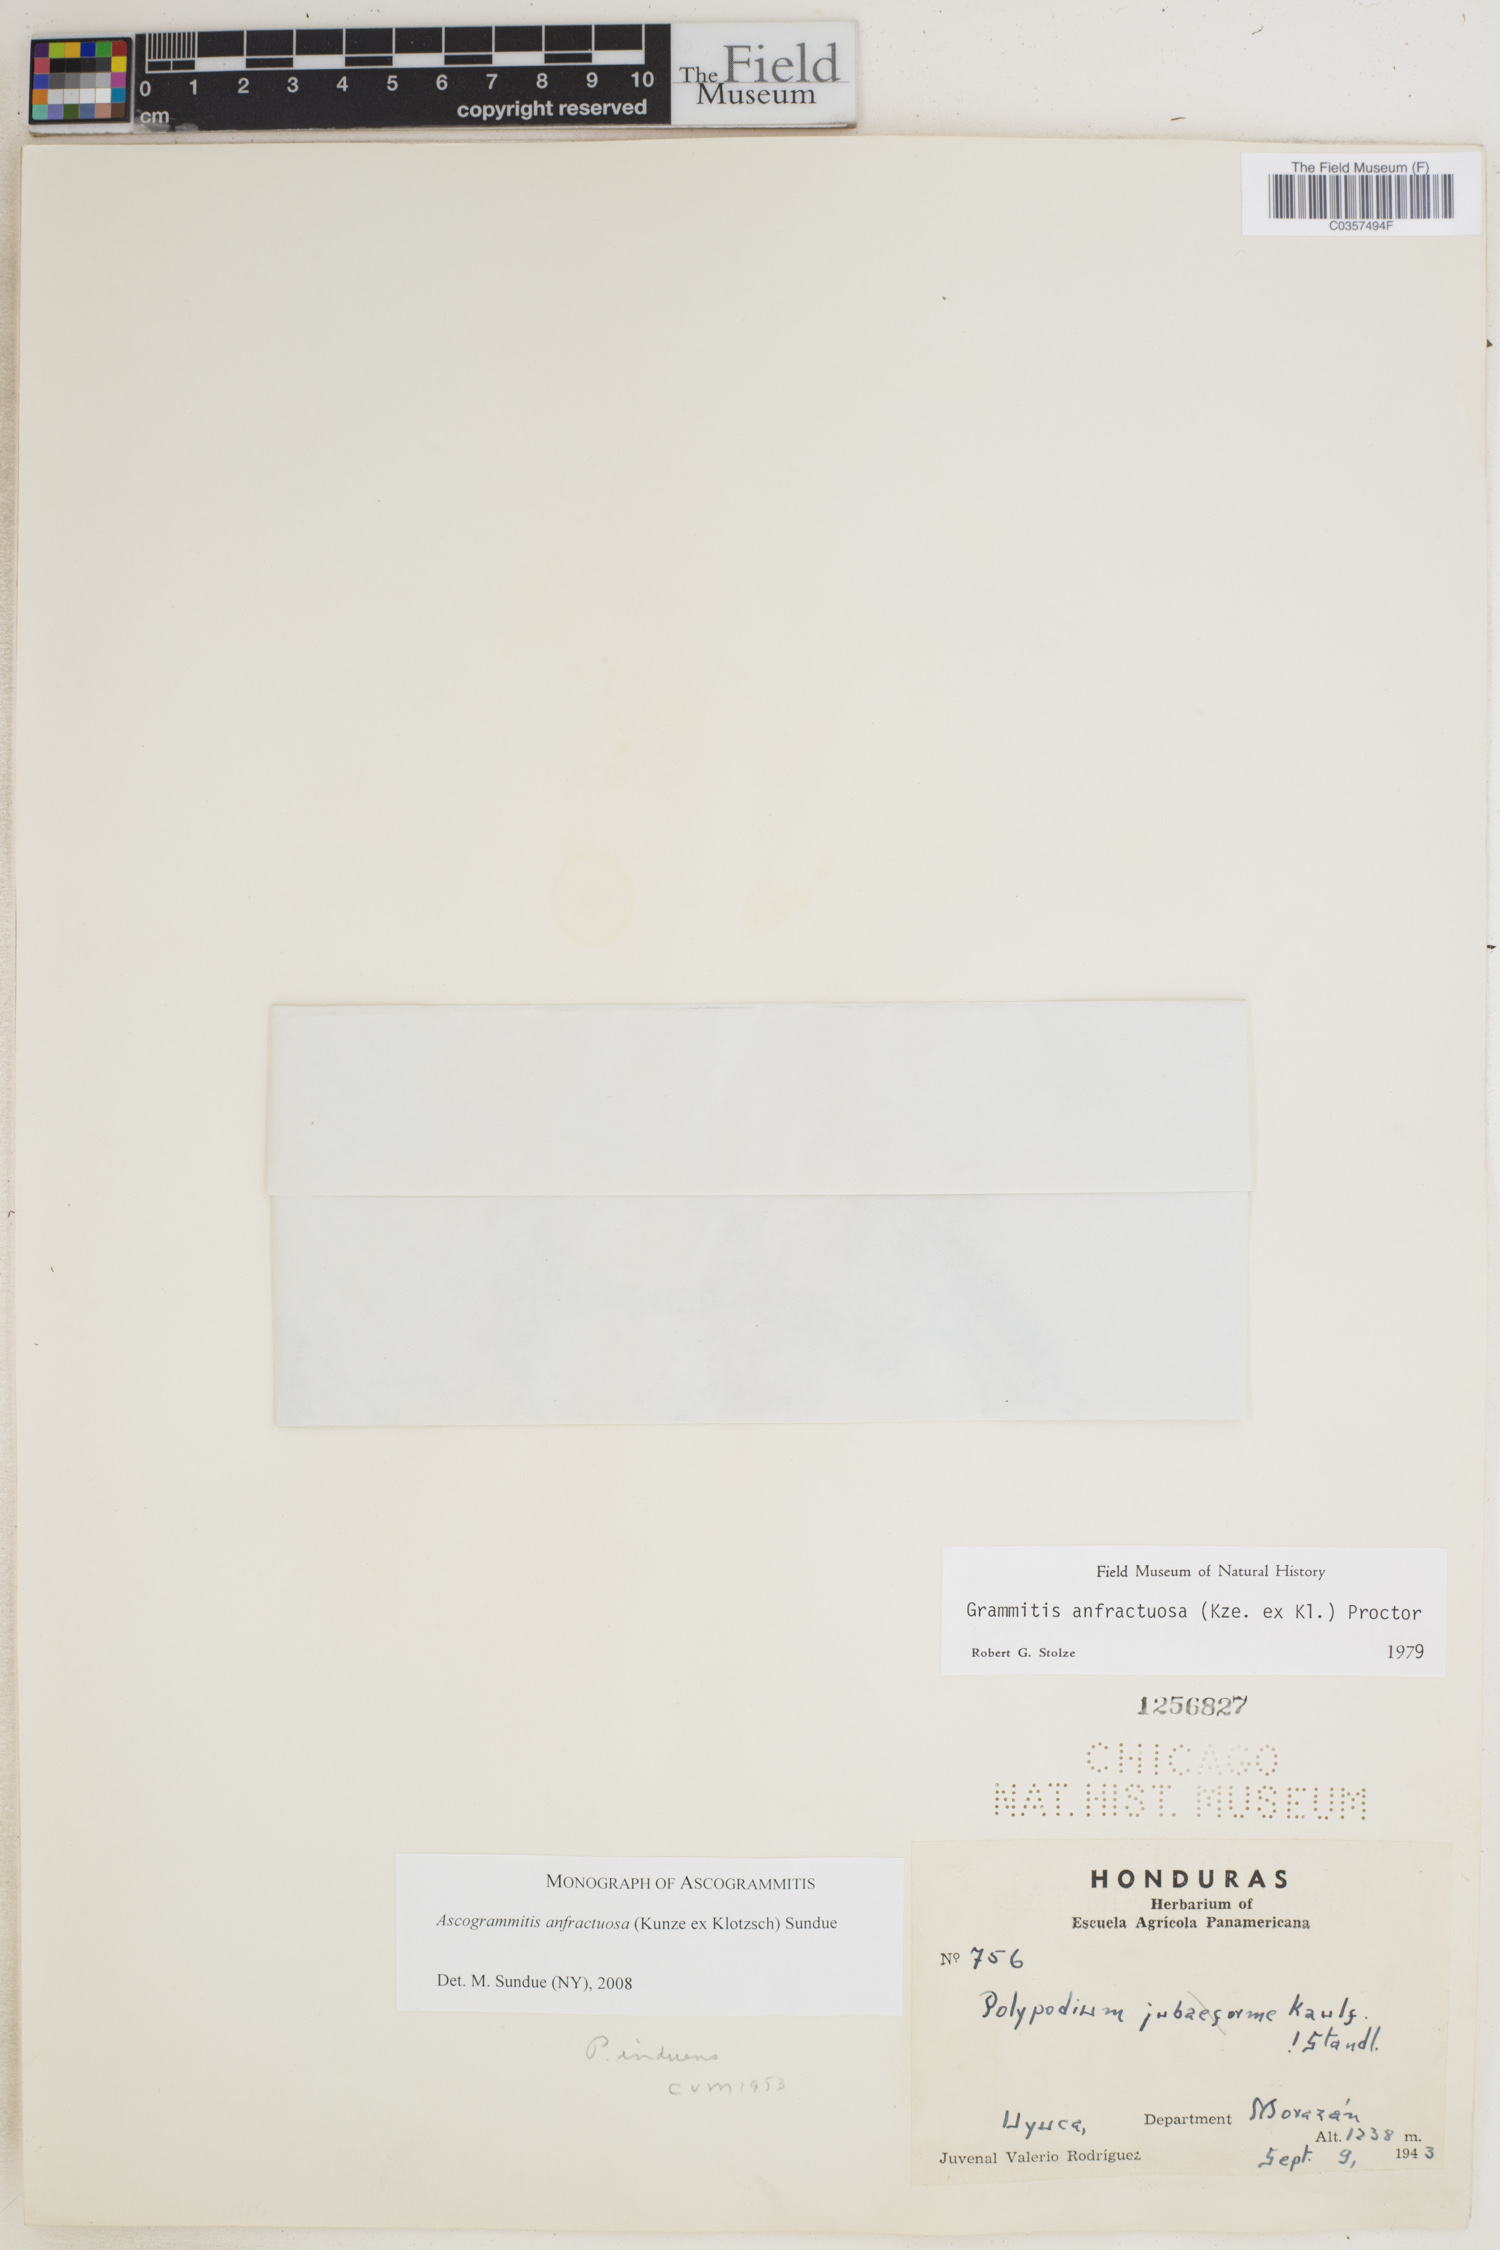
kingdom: Plantae
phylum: Tracheophyta
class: Polypodiopsida
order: Polypodiales
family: Polypodiaceae
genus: Ascogrammitis
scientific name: Ascogrammitis anfractuosa
